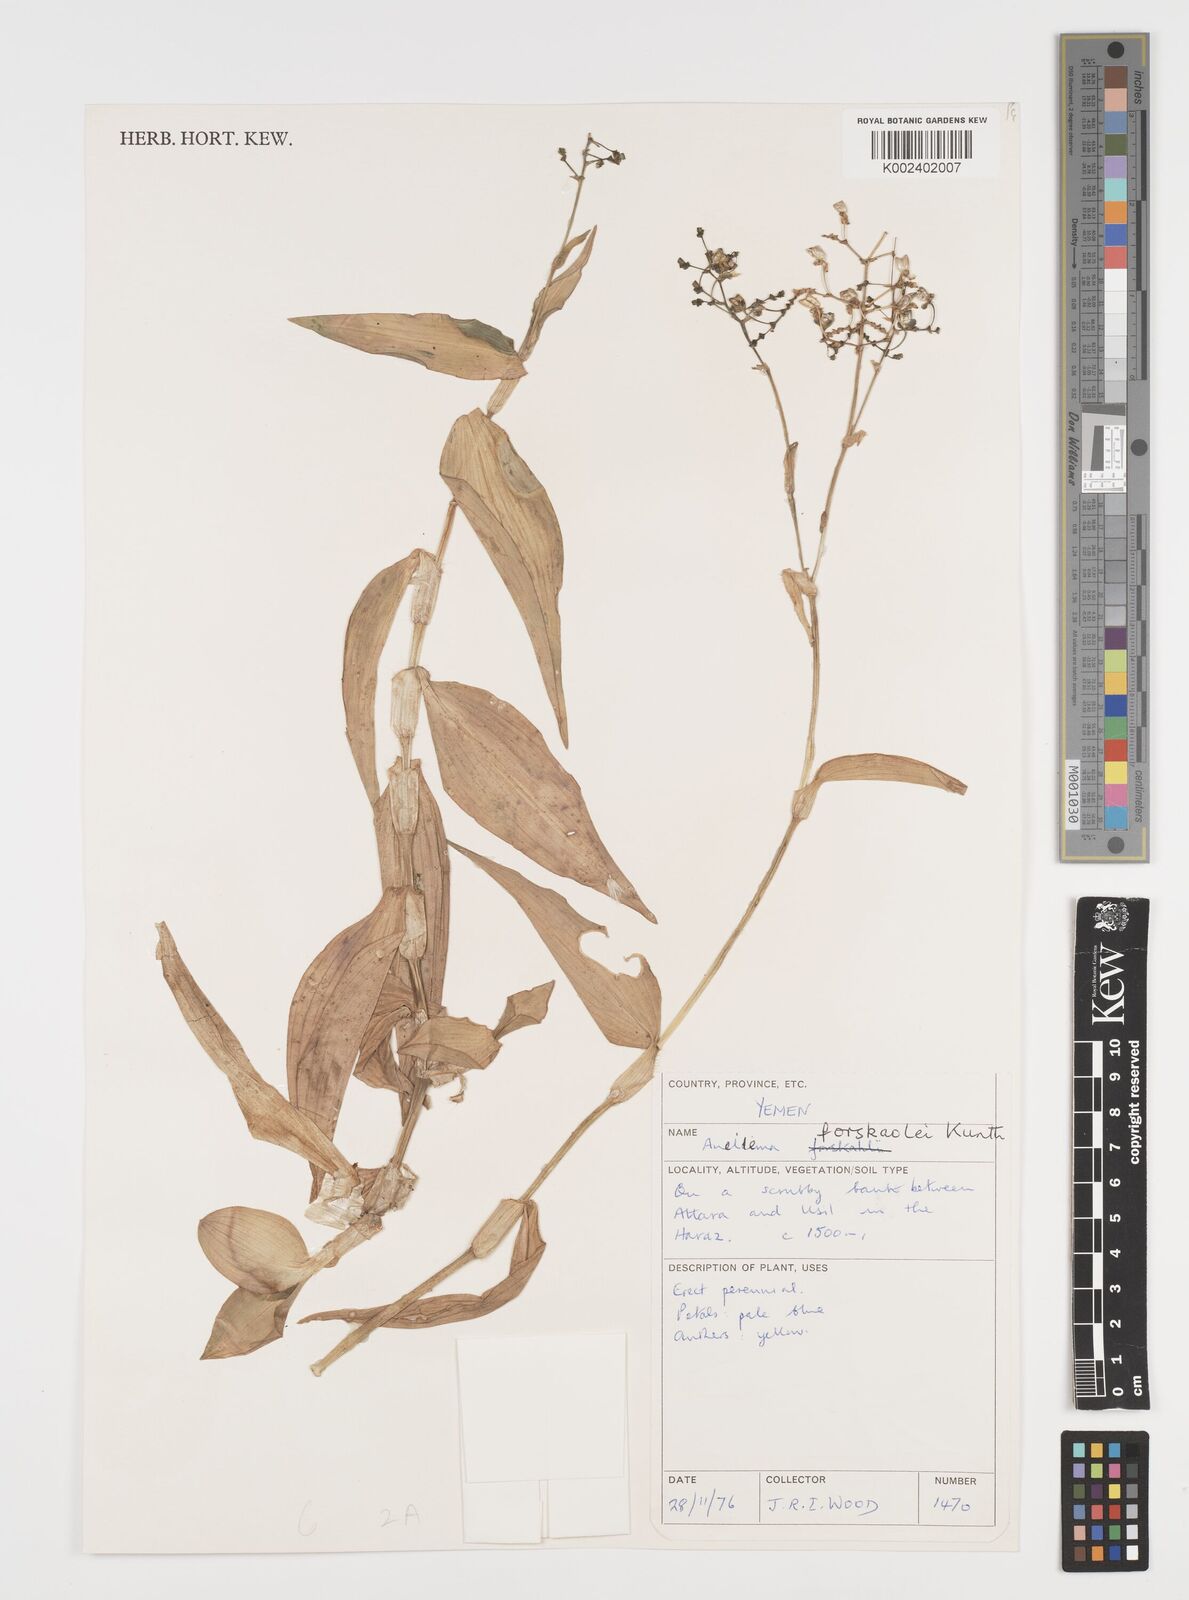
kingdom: Plantae
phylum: Tracheophyta
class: Liliopsida
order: Commelinales
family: Commelinaceae
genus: Aneilema
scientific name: Aneilema forskalii
